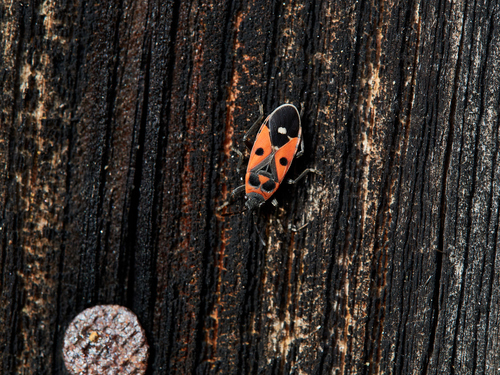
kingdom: Animalia
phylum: Arthropoda
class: Insecta
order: Hemiptera
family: Lygaeidae
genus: Melanocoryphus
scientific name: Melanocoryphus albomaculatus
